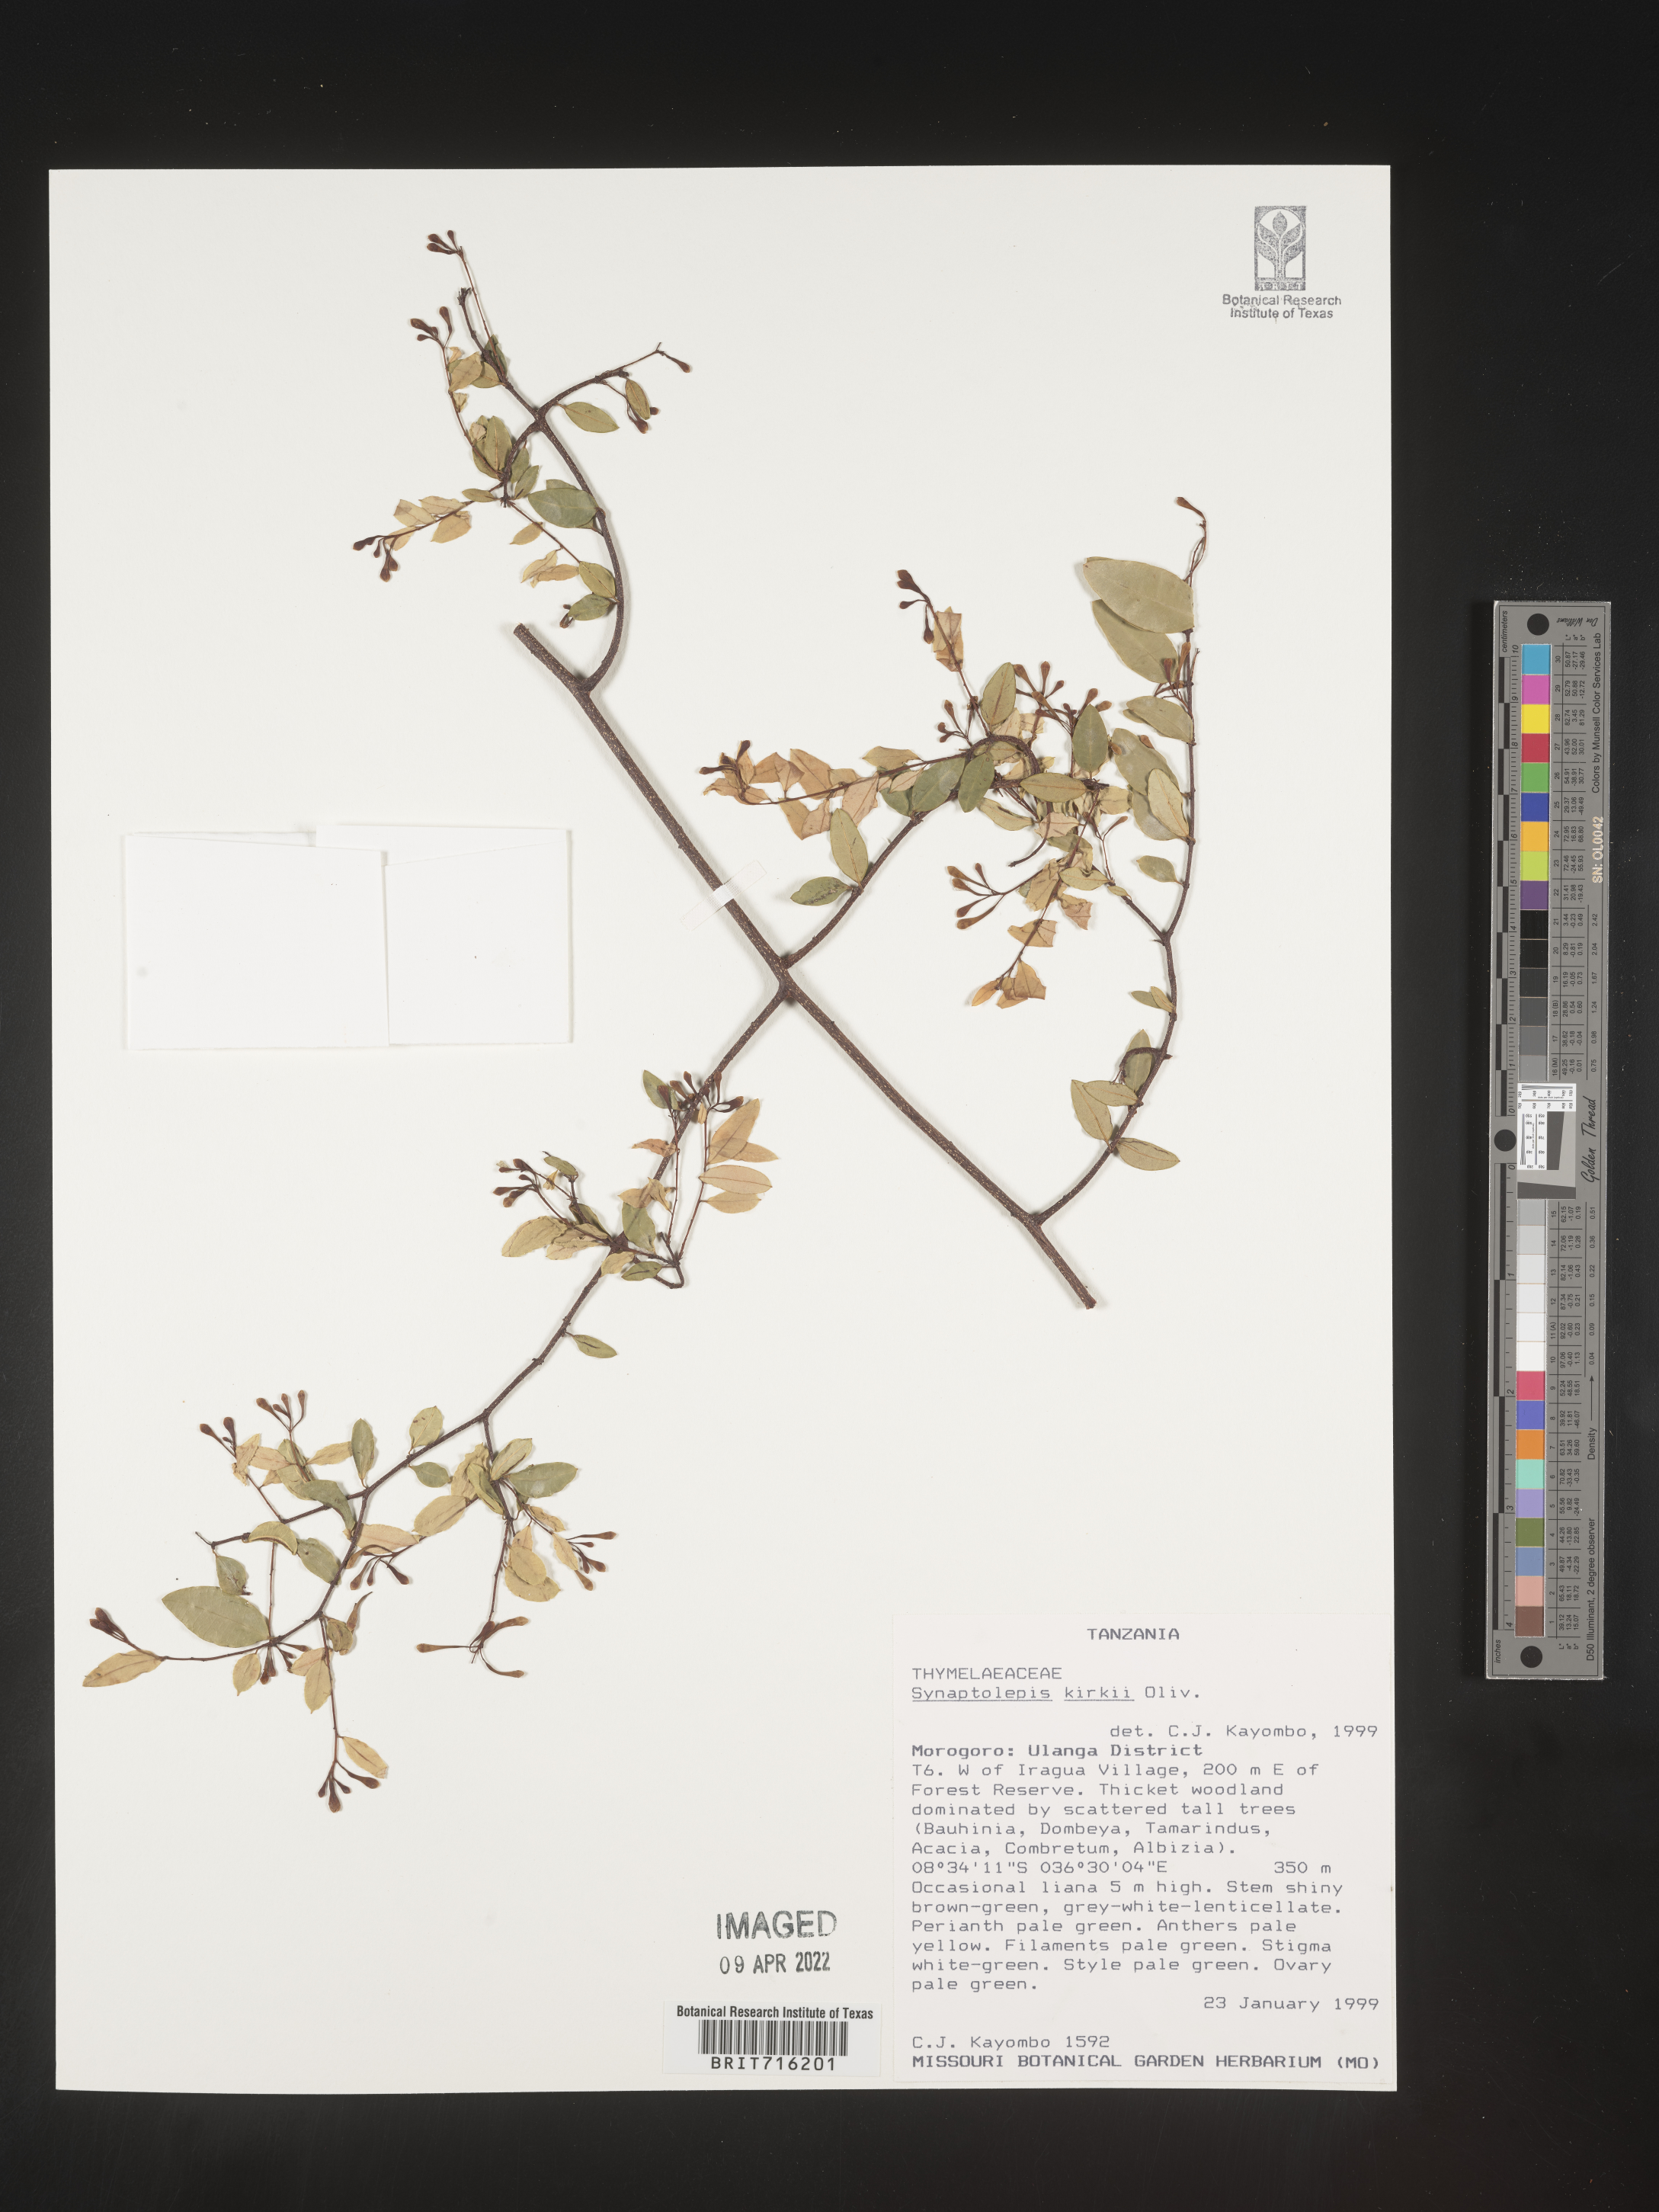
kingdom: Plantae
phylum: Tracheophyta
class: Magnoliopsida
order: Malvales
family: Thymelaeaceae
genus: Synaptolepis
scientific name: Synaptolepis
